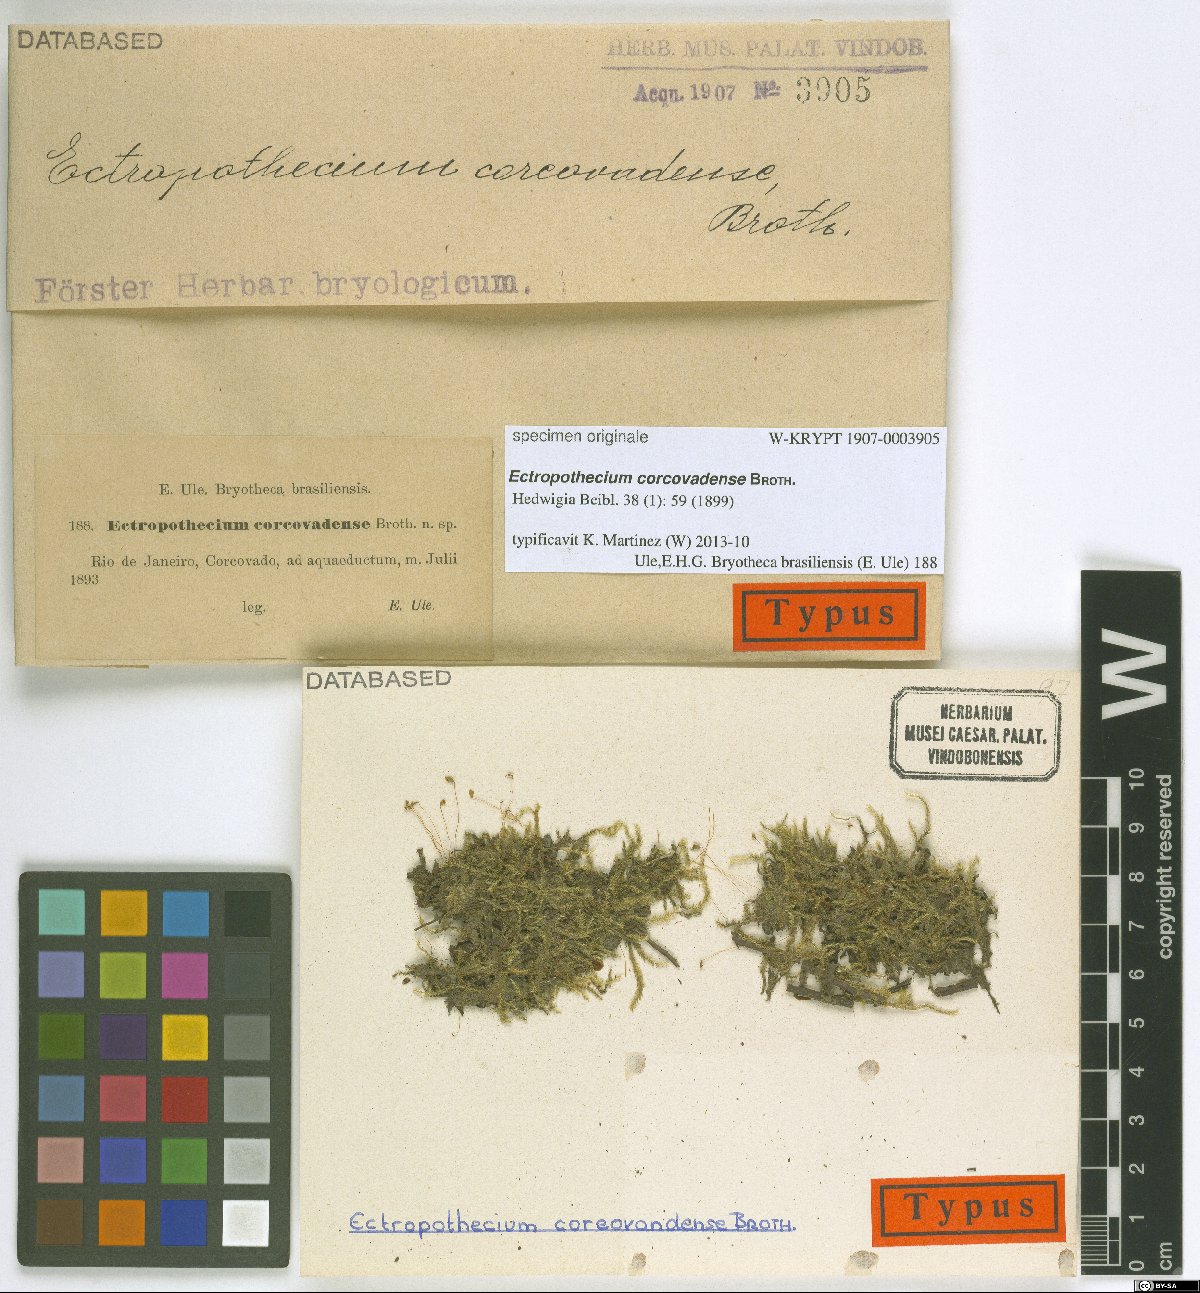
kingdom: Plantae
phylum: Bryophyta
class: Bryopsida
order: Hypnales
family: Hypnaceae
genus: Ectropothecium
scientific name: Ectropothecium
